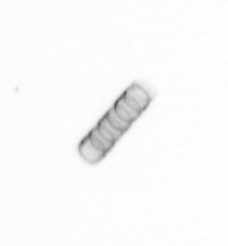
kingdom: Chromista
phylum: Ochrophyta
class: Bacillariophyceae
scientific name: Bacillariophyceae
